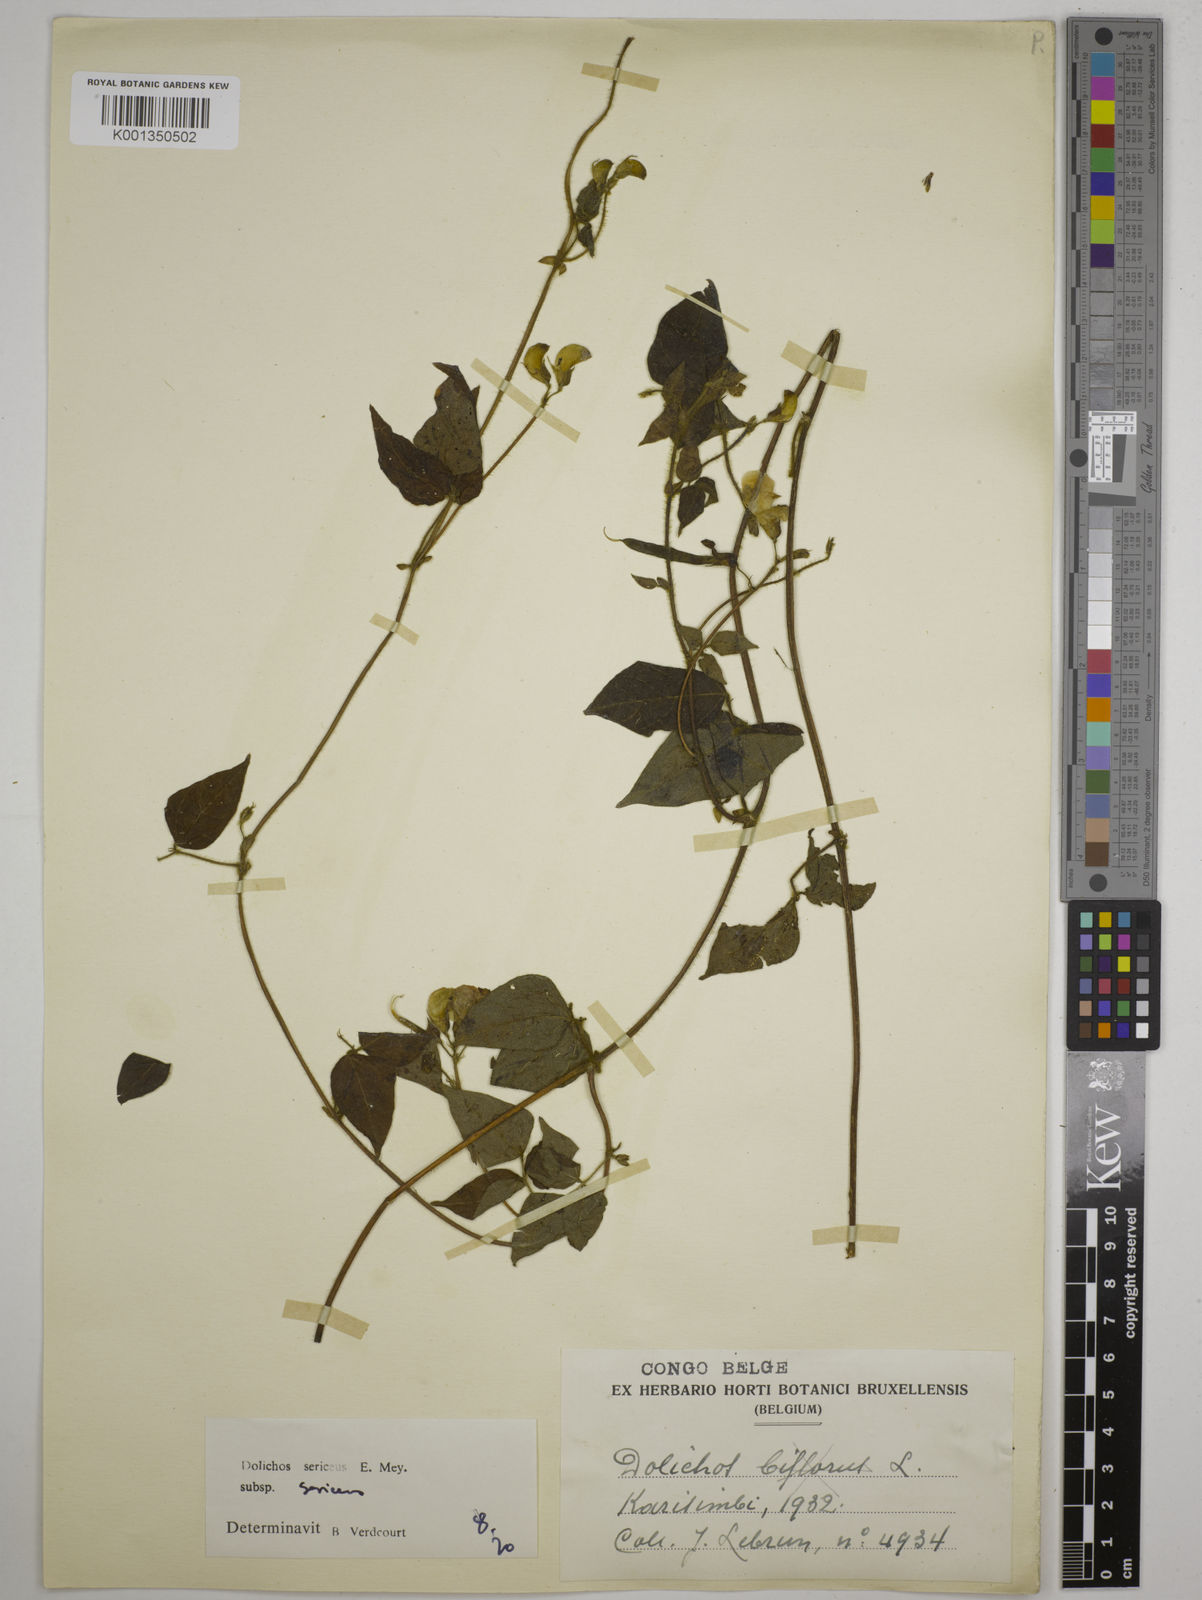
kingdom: Plantae
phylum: Tracheophyta
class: Magnoliopsida
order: Fabales
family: Fabaceae
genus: Dolichos
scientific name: Dolichos sericeus
